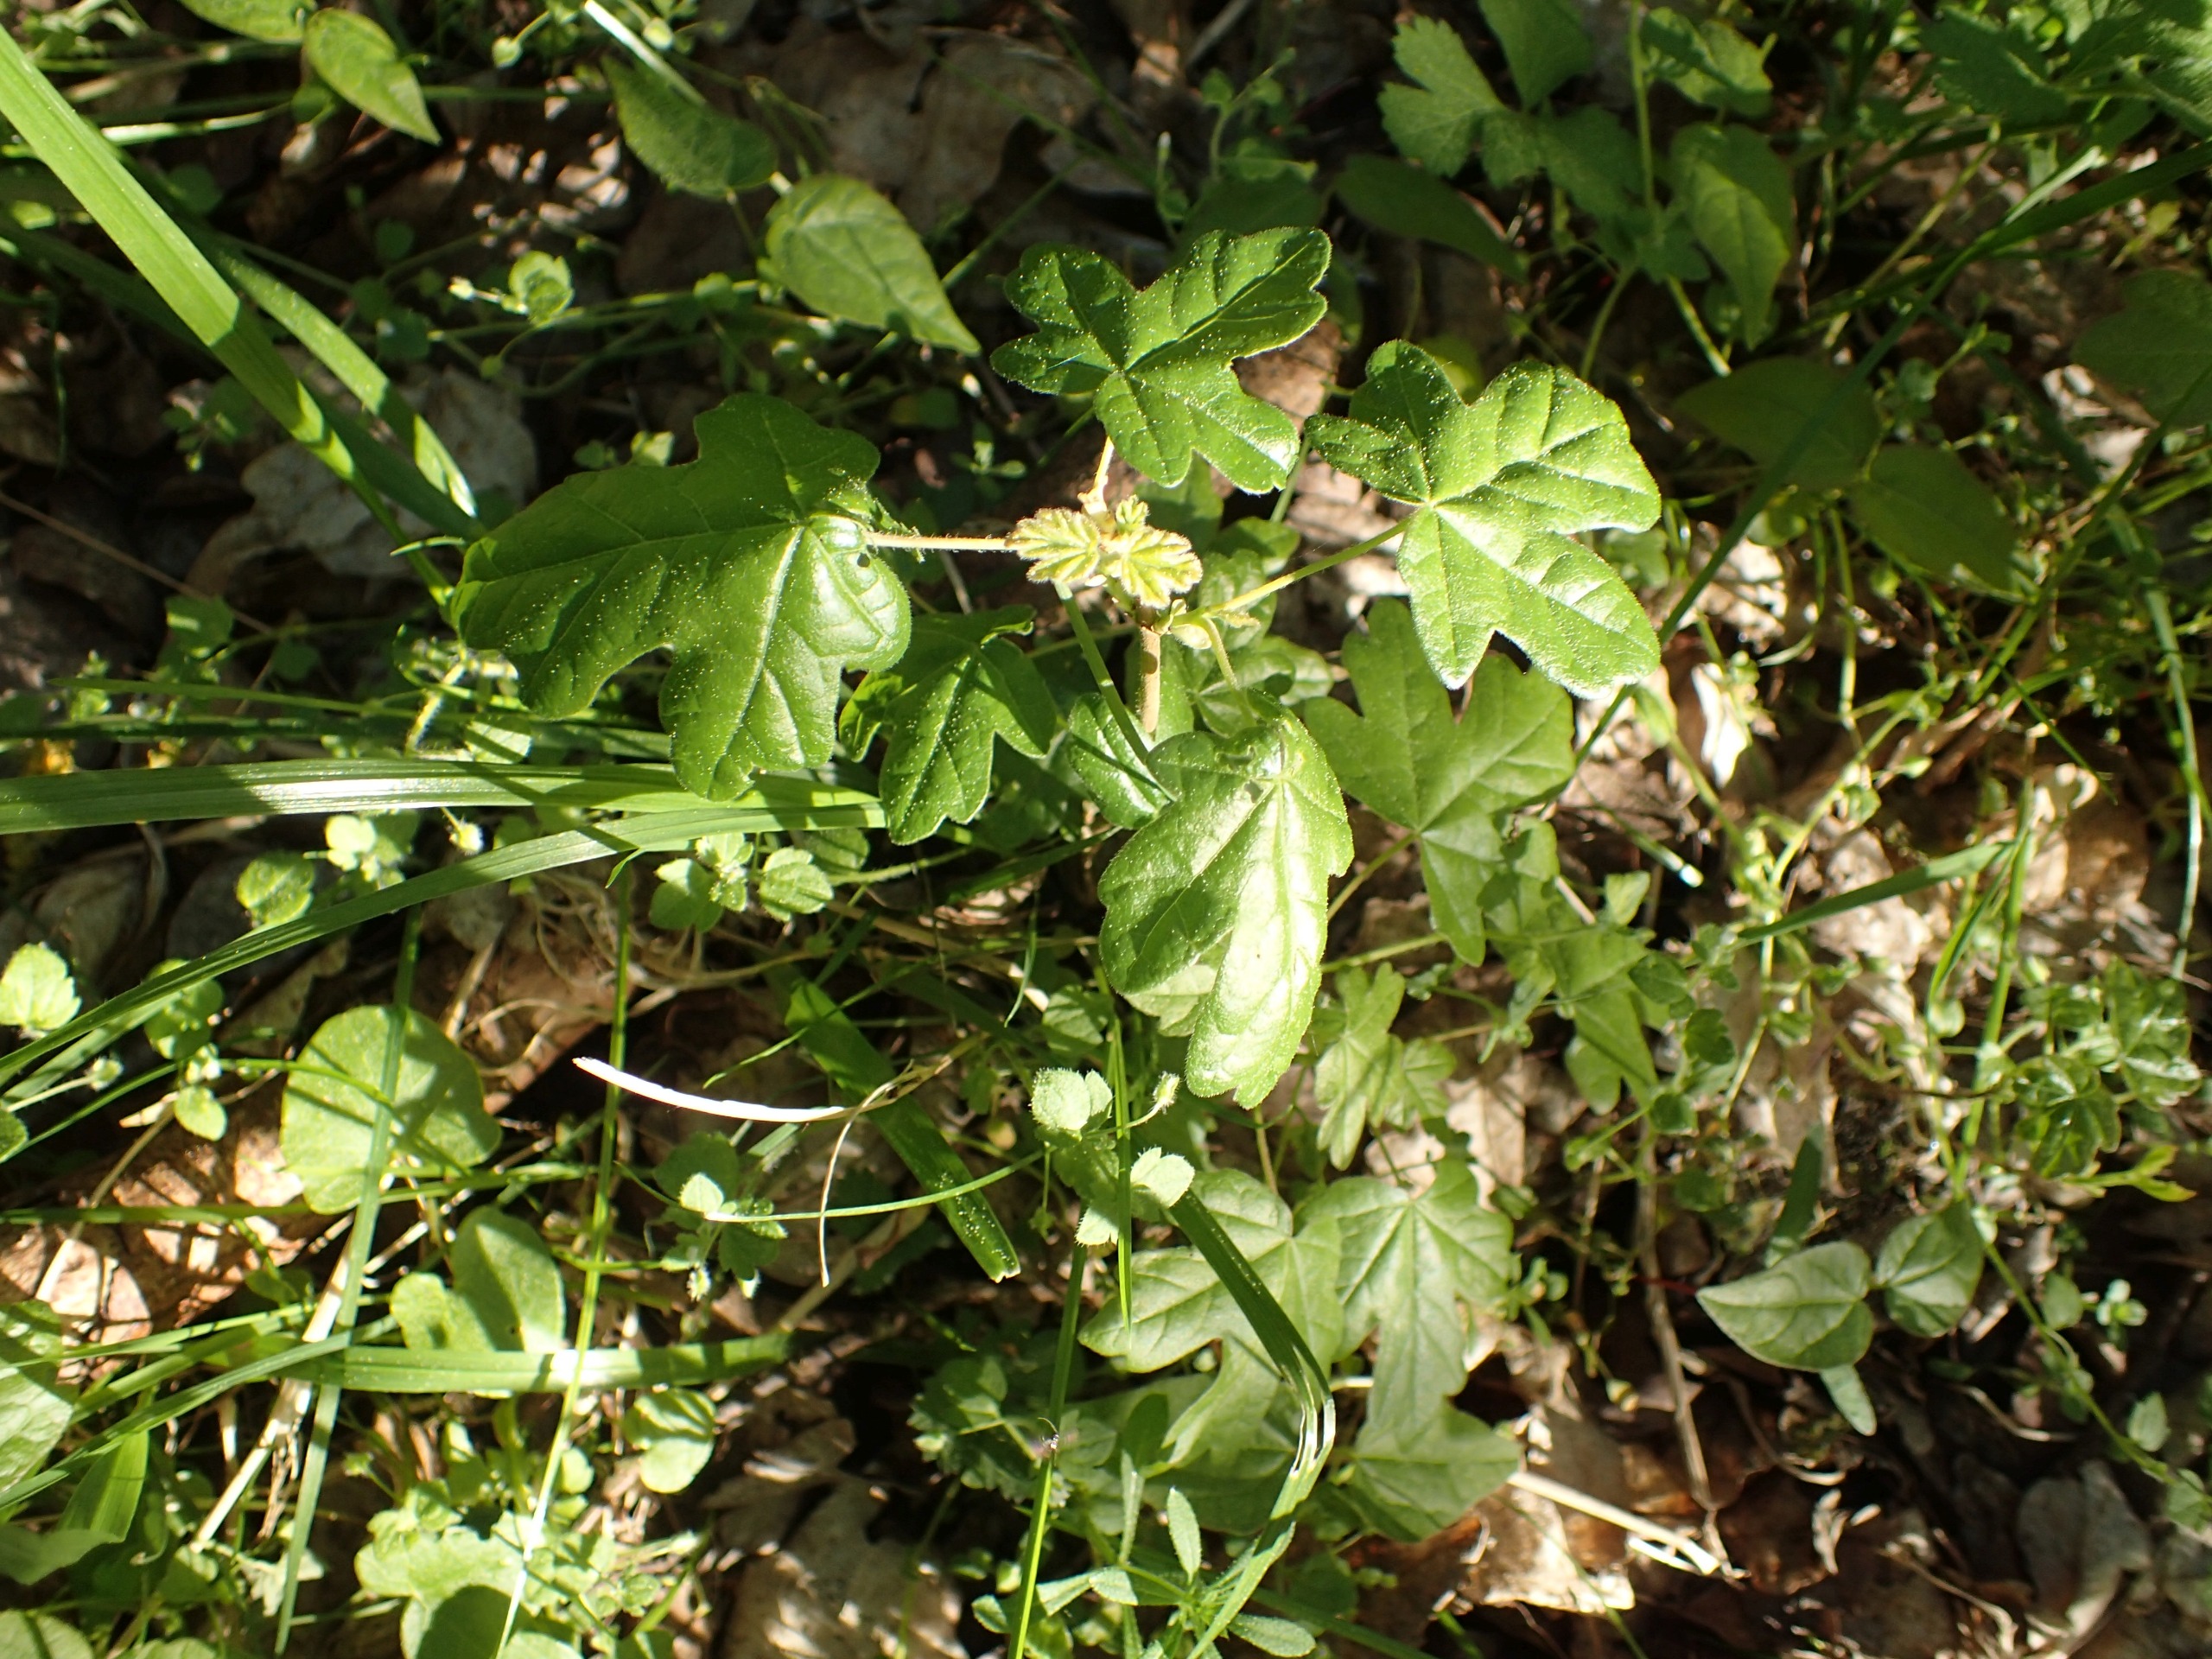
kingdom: Plantae
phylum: Tracheophyta
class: Magnoliopsida
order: Sapindales
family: Sapindaceae
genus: Acer
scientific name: Acer campestre
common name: Navr
